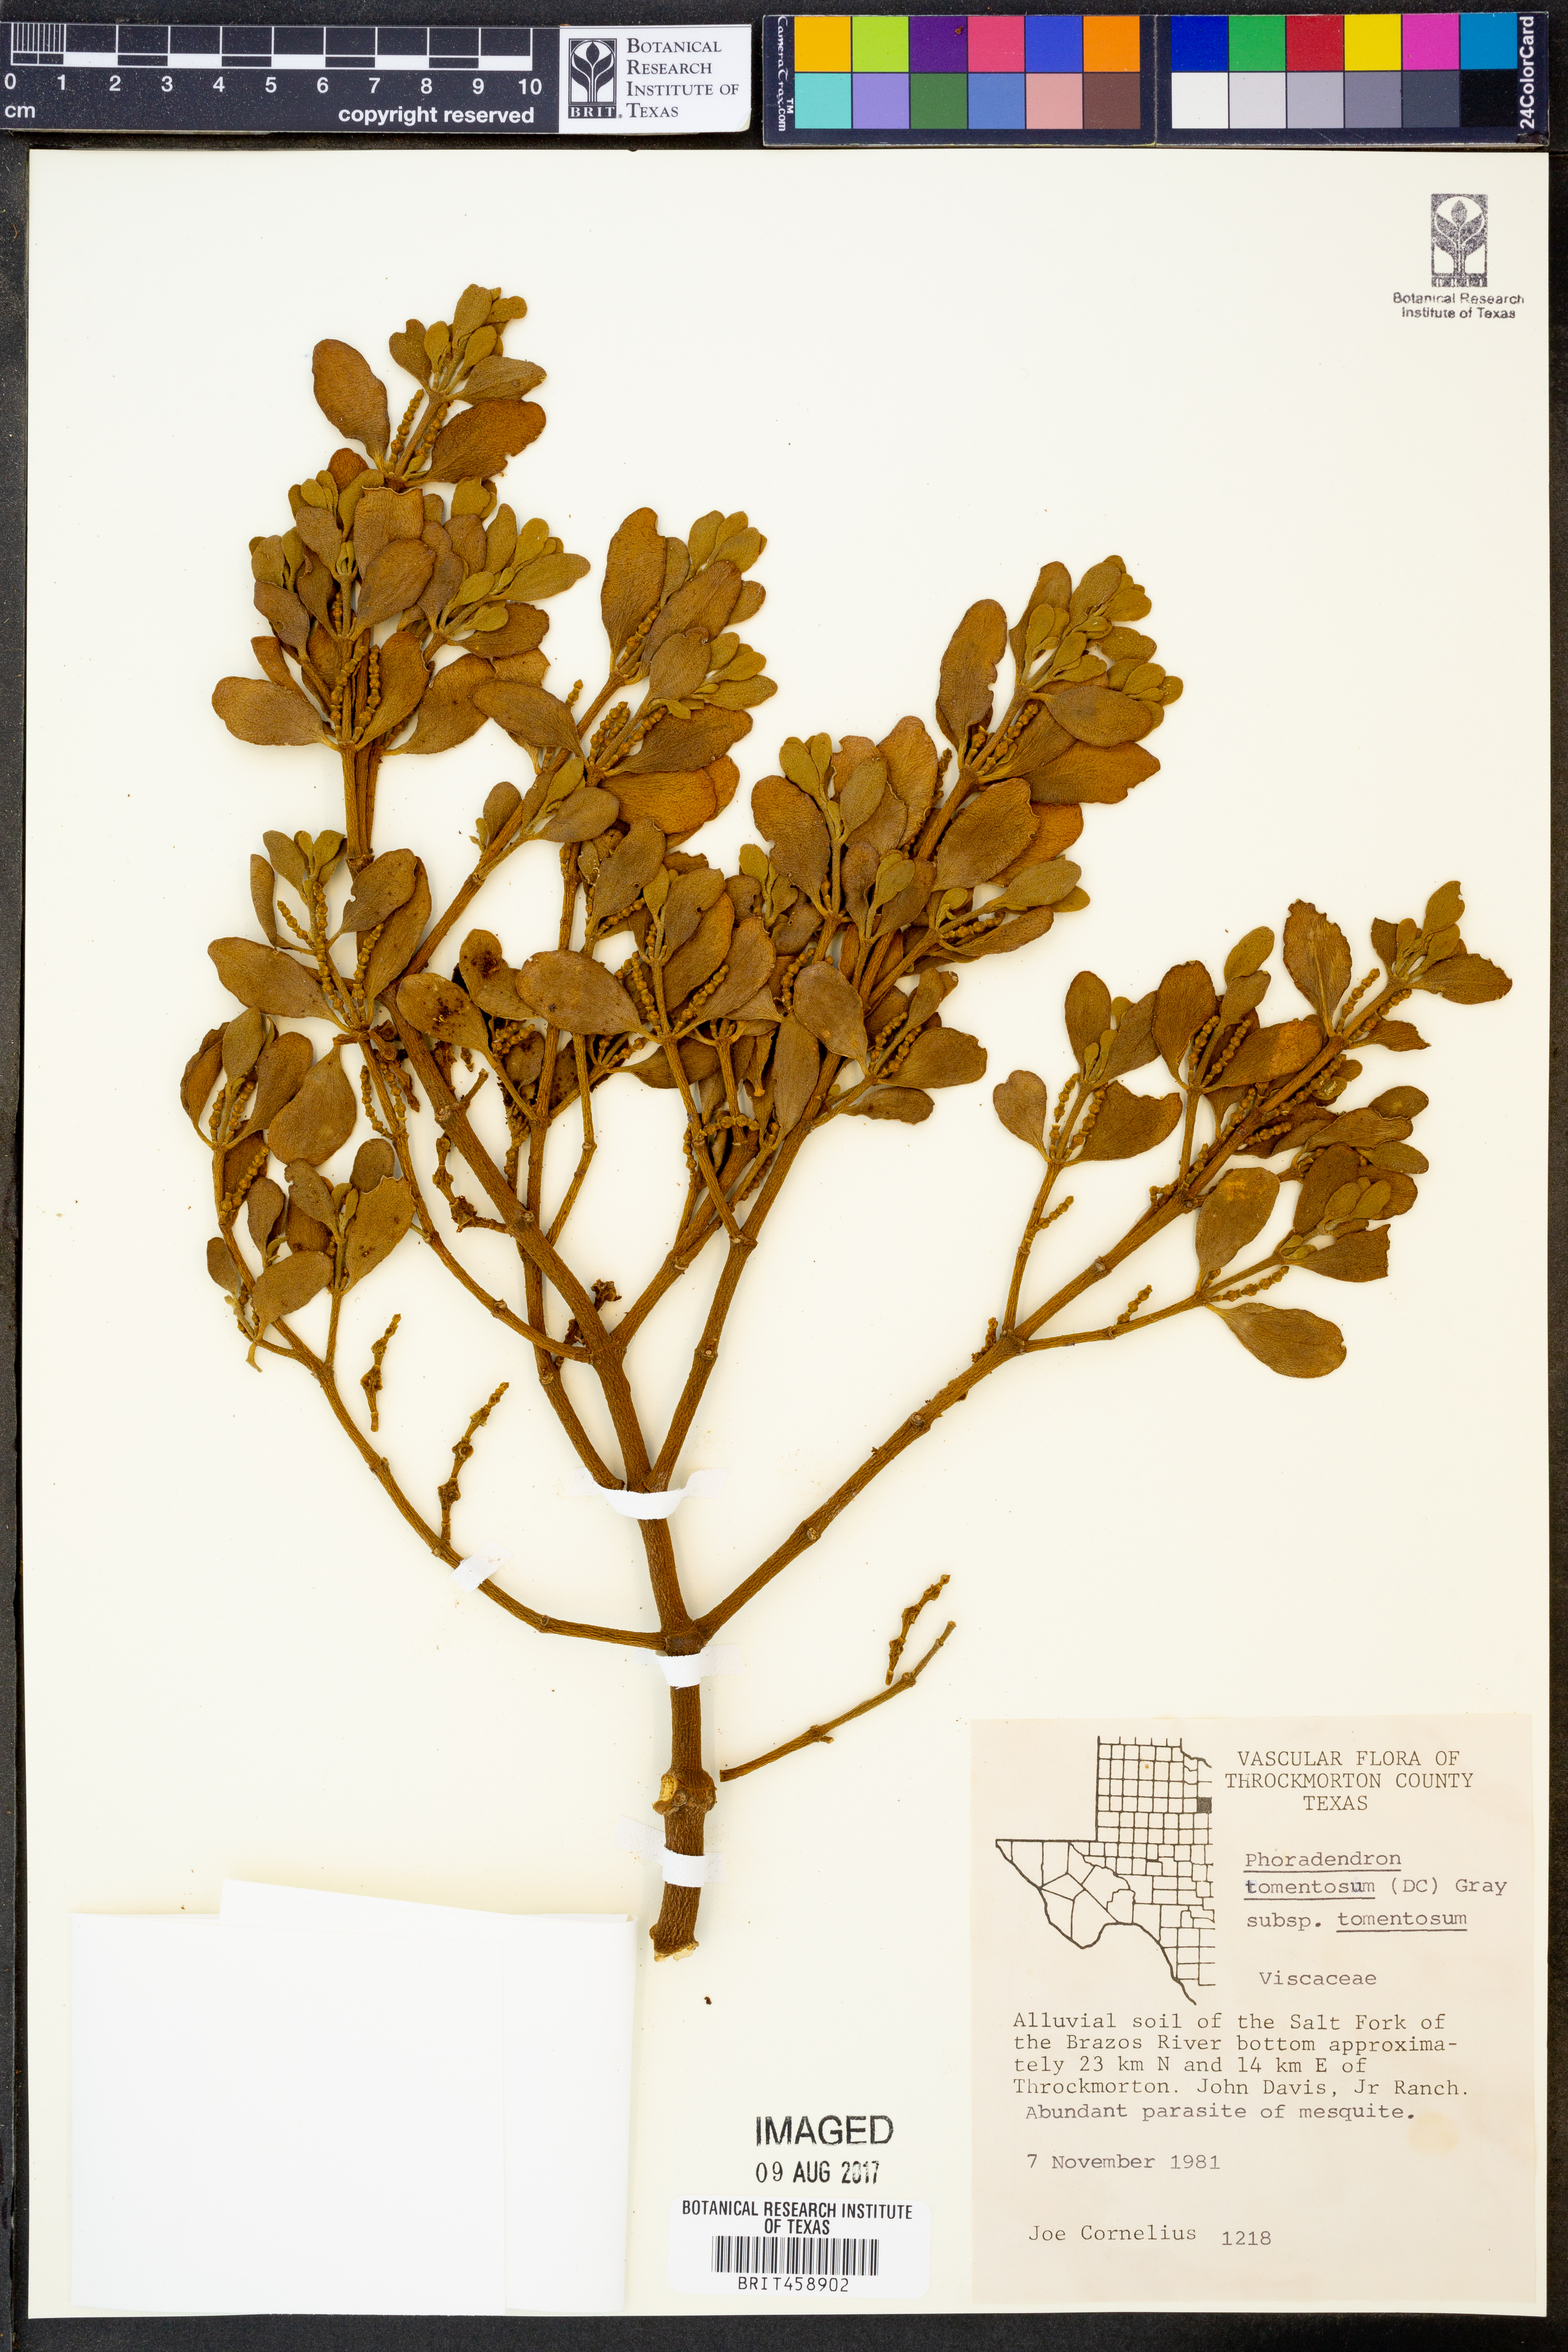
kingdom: Plantae
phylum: Tracheophyta
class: Magnoliopsida
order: Santalales
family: Viscaceae
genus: Phoradendron
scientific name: Phoradendron leucarpum
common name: Pacific mistletoe
